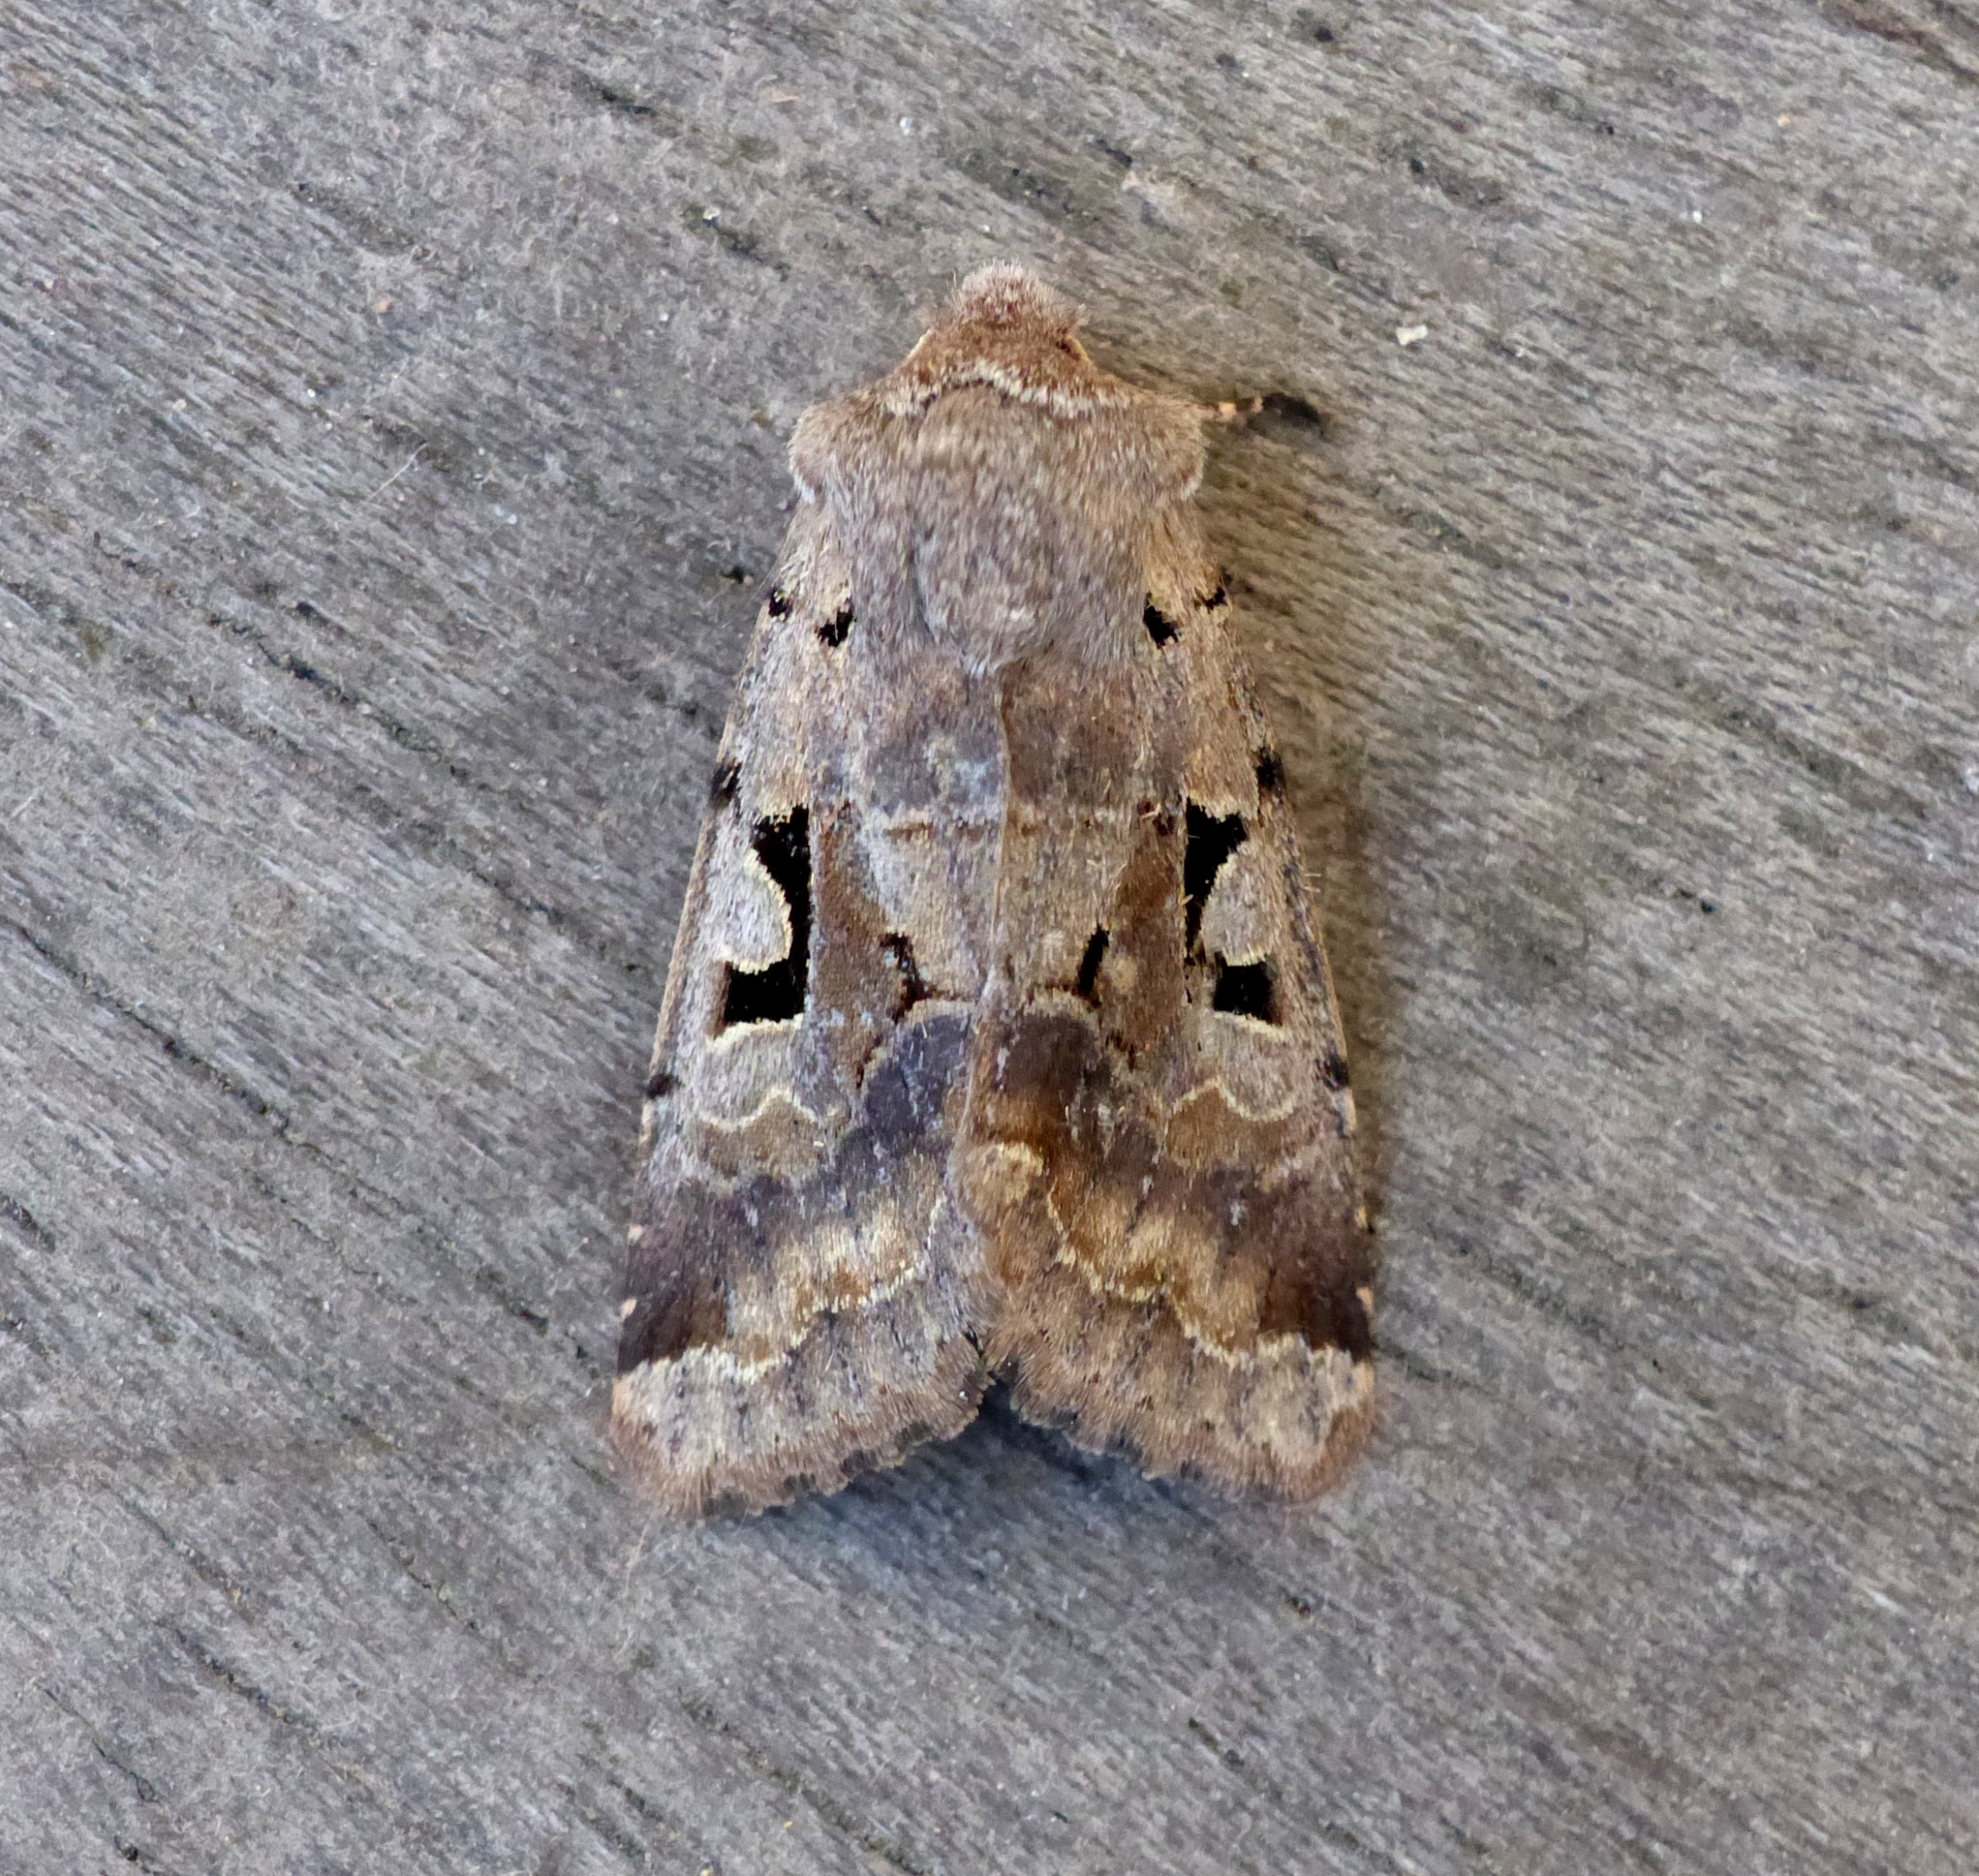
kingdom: Animalia
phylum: Arthropoda
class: Insecta
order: Lepidoptera
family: Noctuidae
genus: Orthosia
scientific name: Orthosia gothica
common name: Gotisk forårsugle
